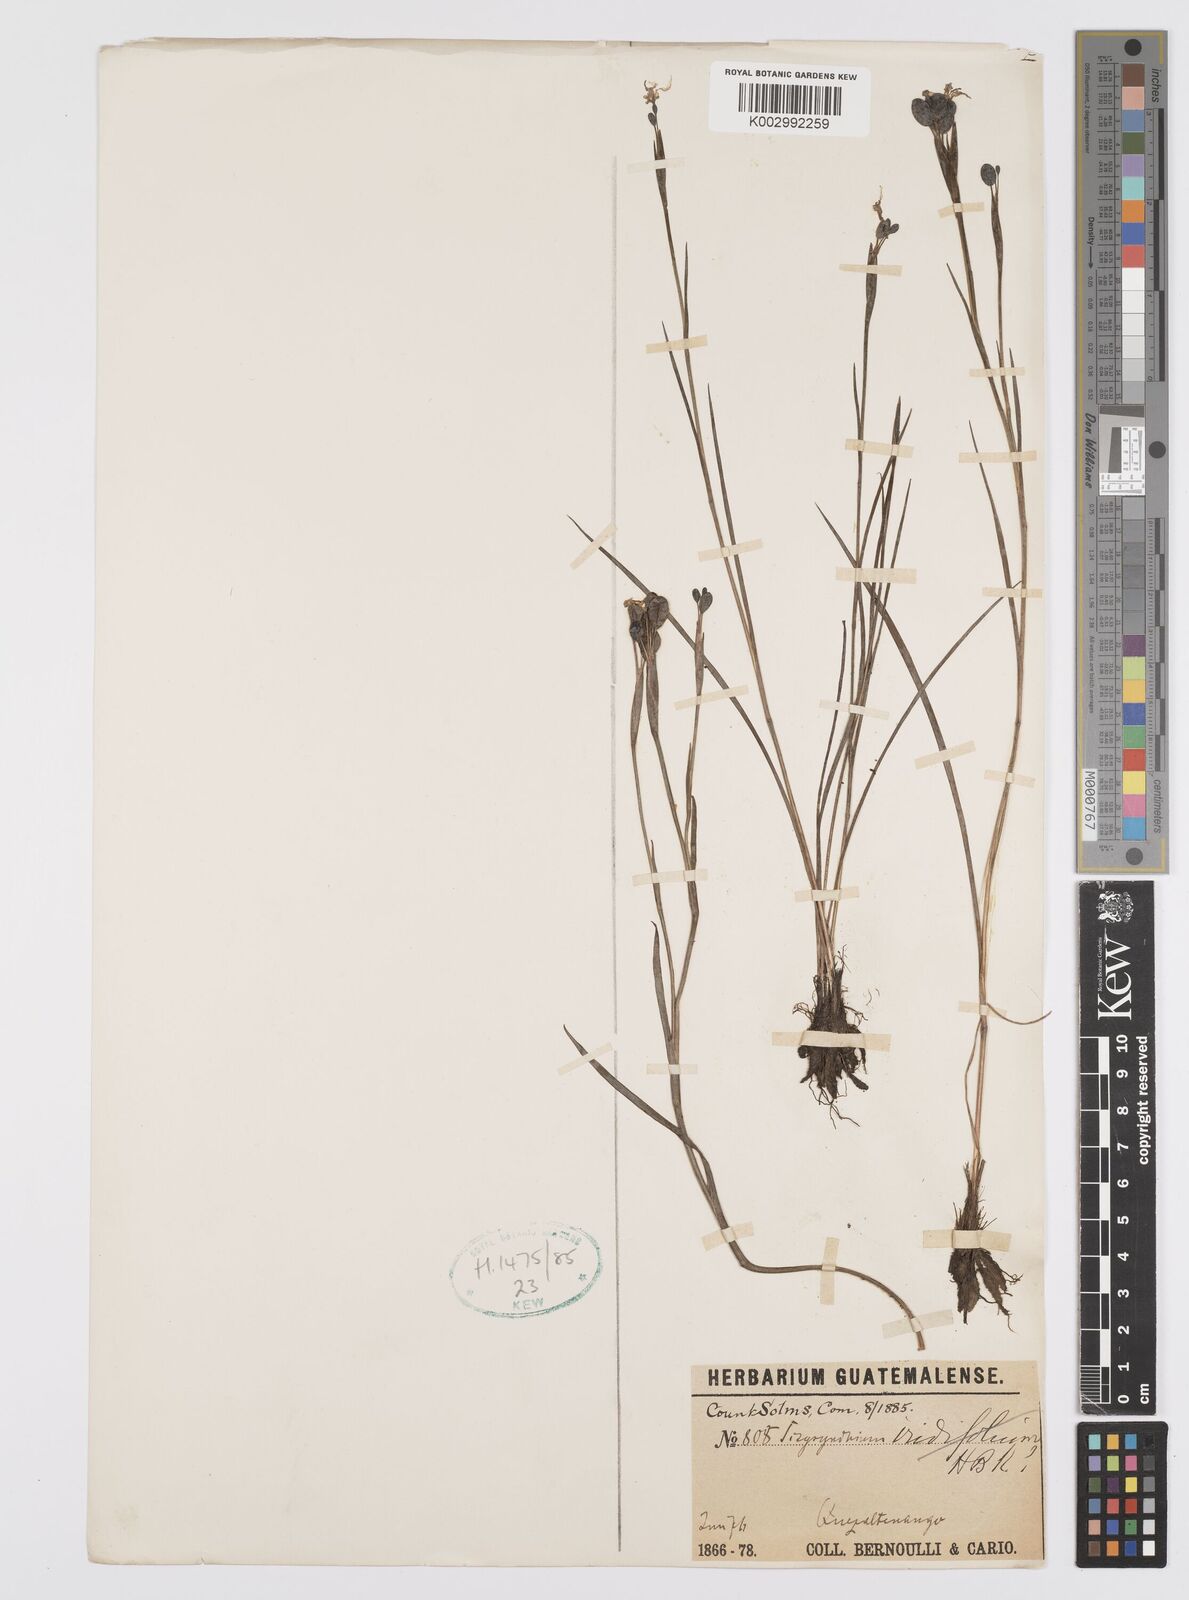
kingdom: Plantae
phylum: Tracheophyta
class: Liliopsida
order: Asparagales
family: Iridaceae
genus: Sisyrinchium
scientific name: Sisyrinchium
